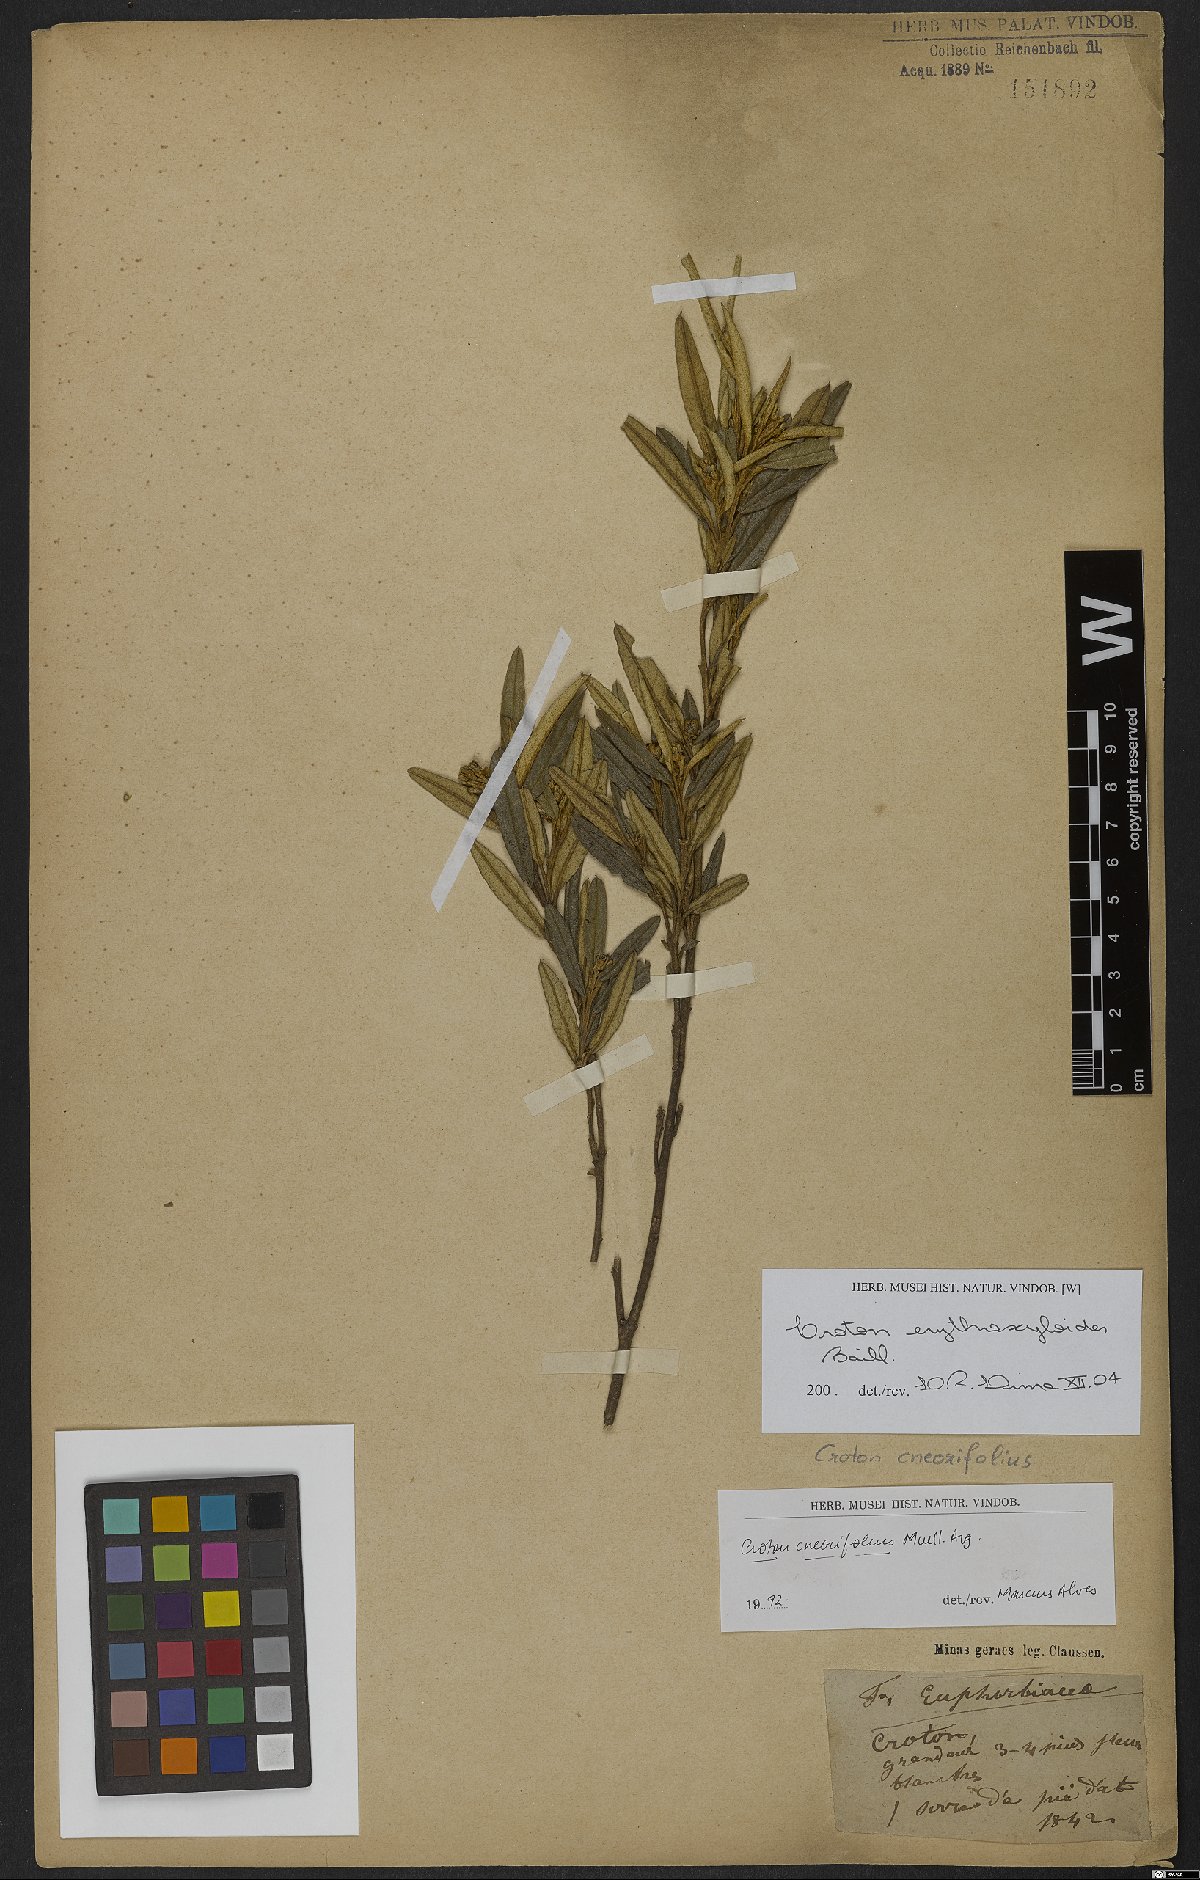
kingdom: Plantae
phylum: Tracheophyta
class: Magnoliopsida
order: Malpighiales
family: Euphorbiaceae
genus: Croton
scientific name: Croton erythroxyloides
